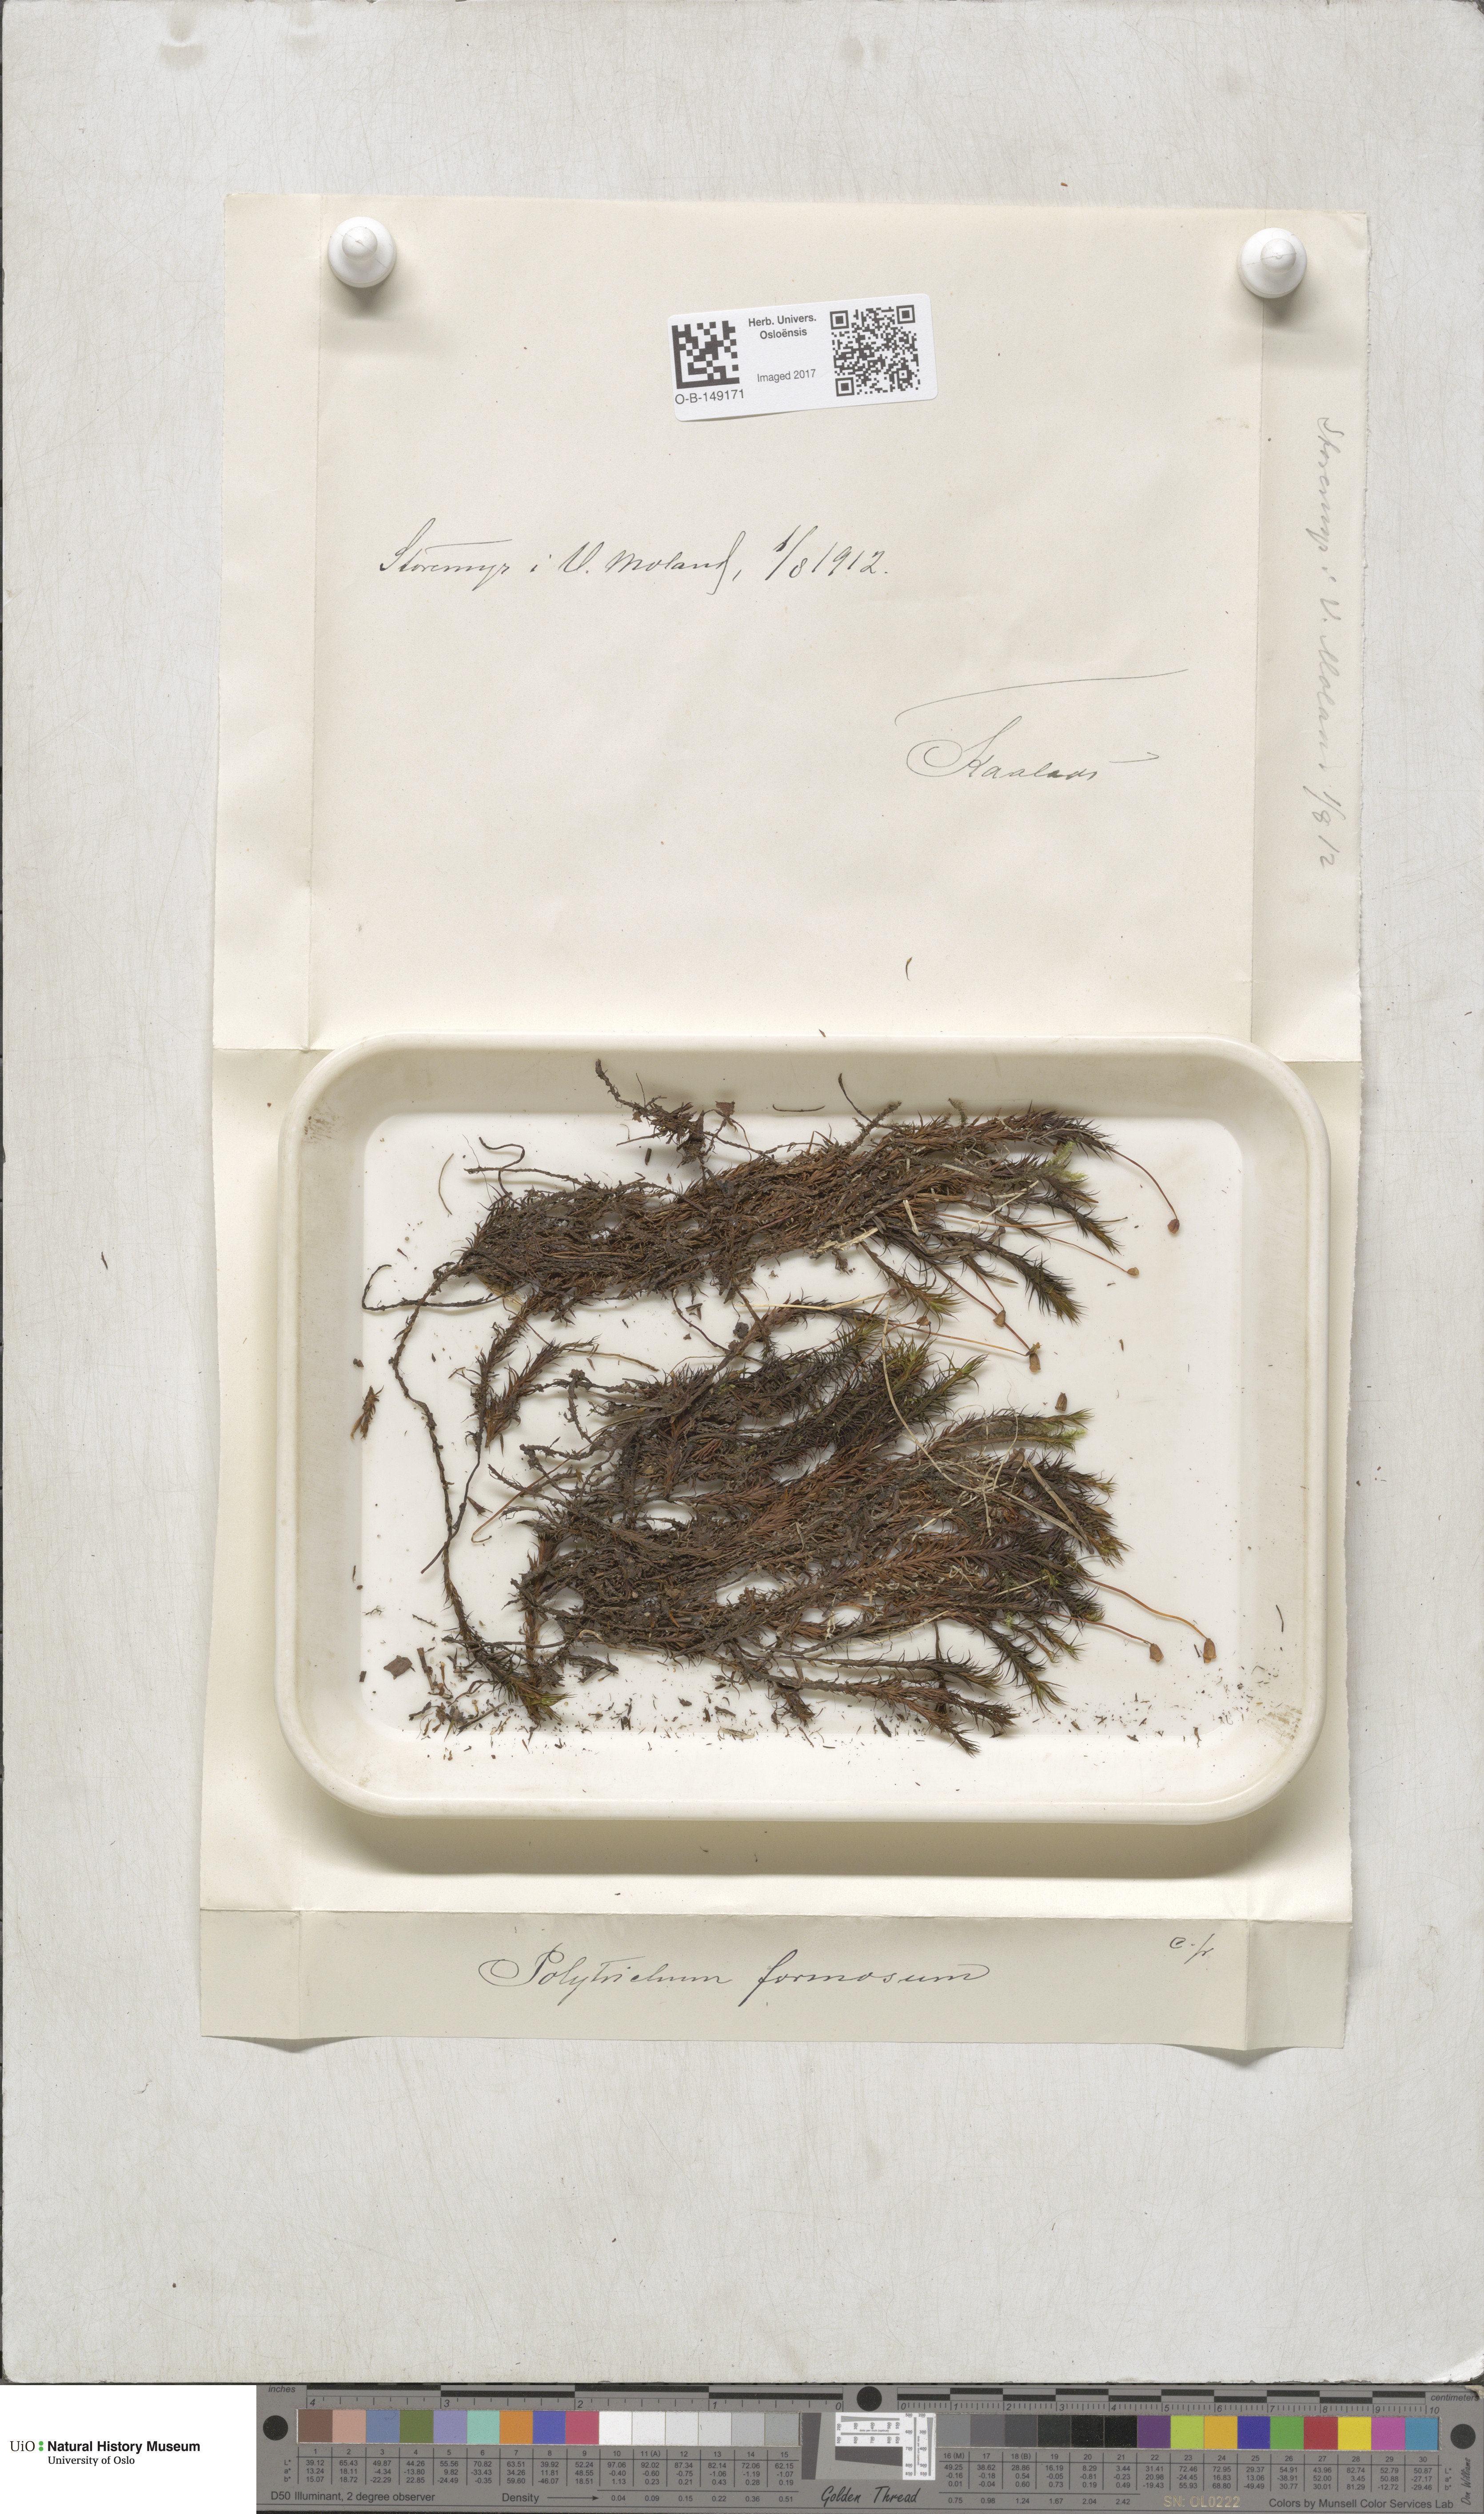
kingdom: Plantae
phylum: Bryophyta
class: Polytrichopsida
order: Polytrichales
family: Polytrichaceae
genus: Polytrichum
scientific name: Polytrichum formosum
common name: Bank haircap moss
